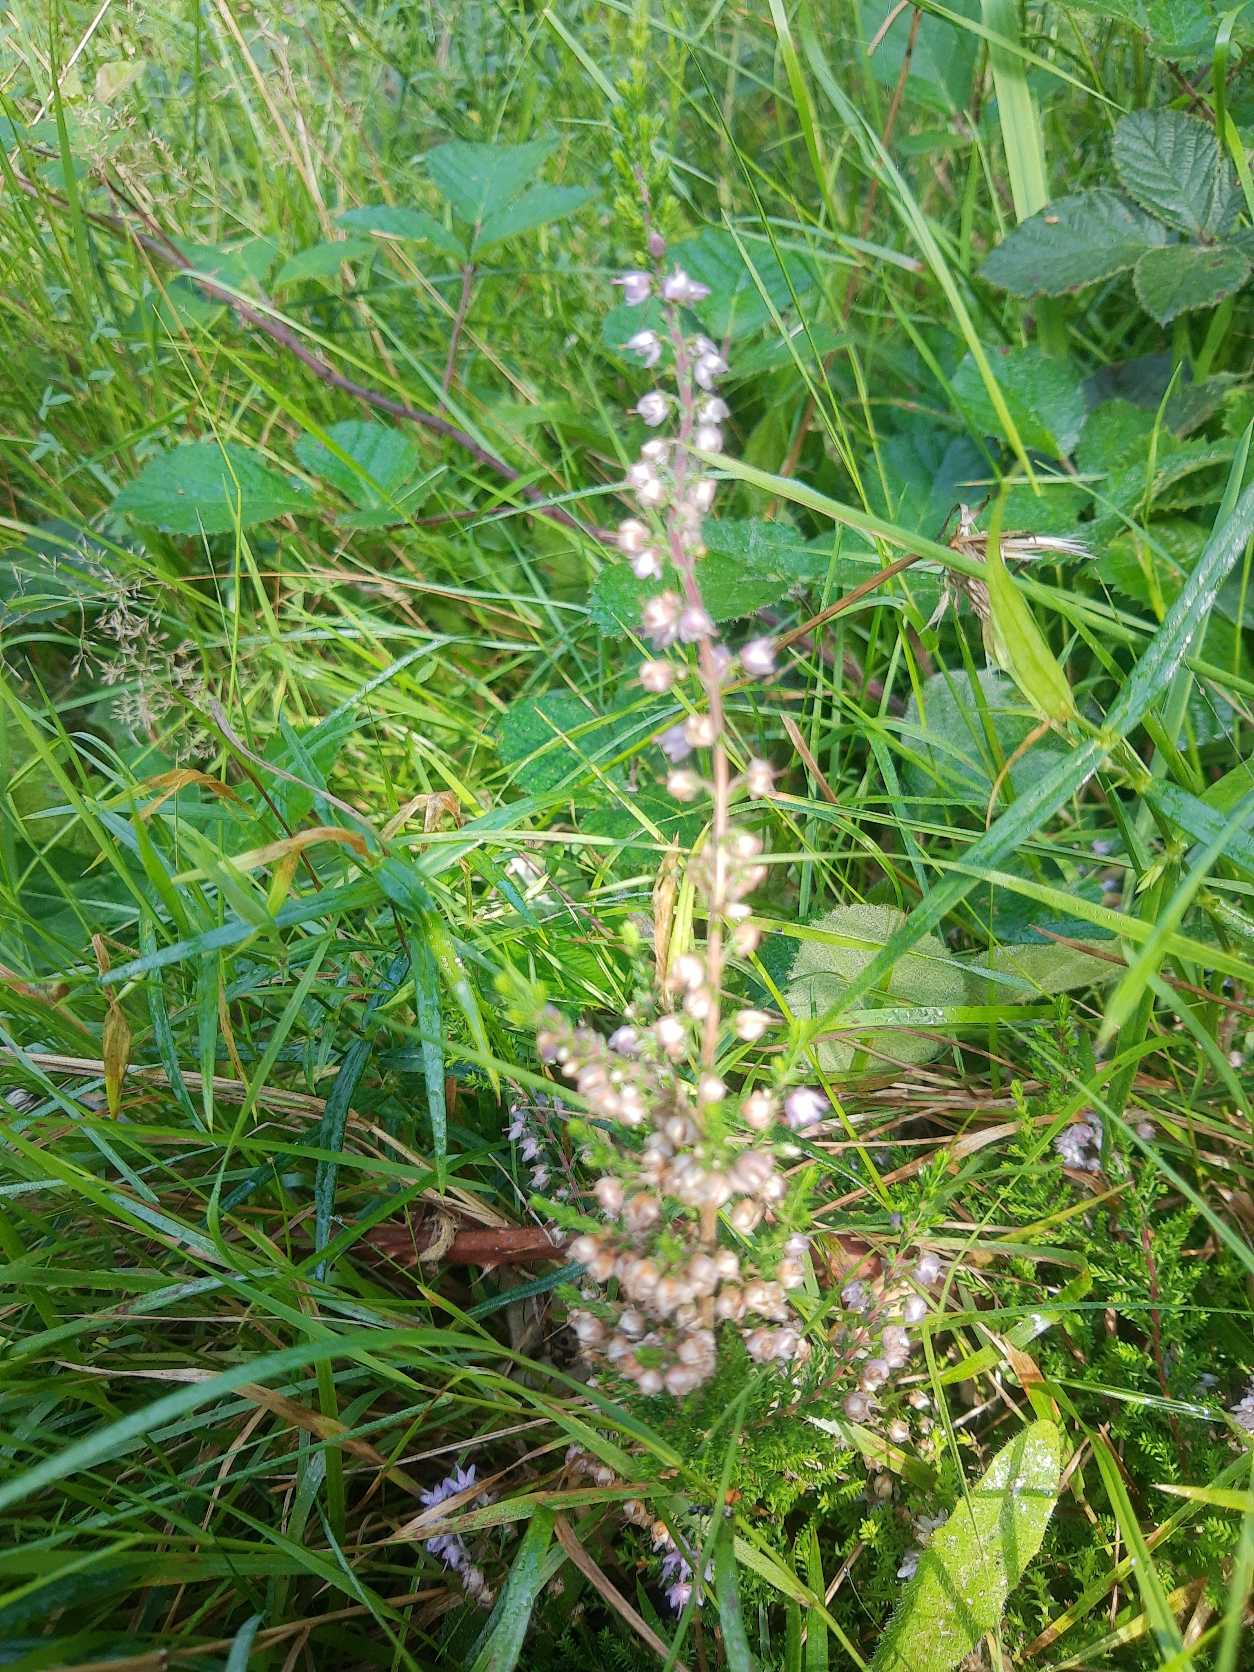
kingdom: Plantae
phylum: Tracheophyta
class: Magnoliopsida
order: Ericales
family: Ericaceae
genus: Calluna
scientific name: Calluna vulgaris
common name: Hedelyng
